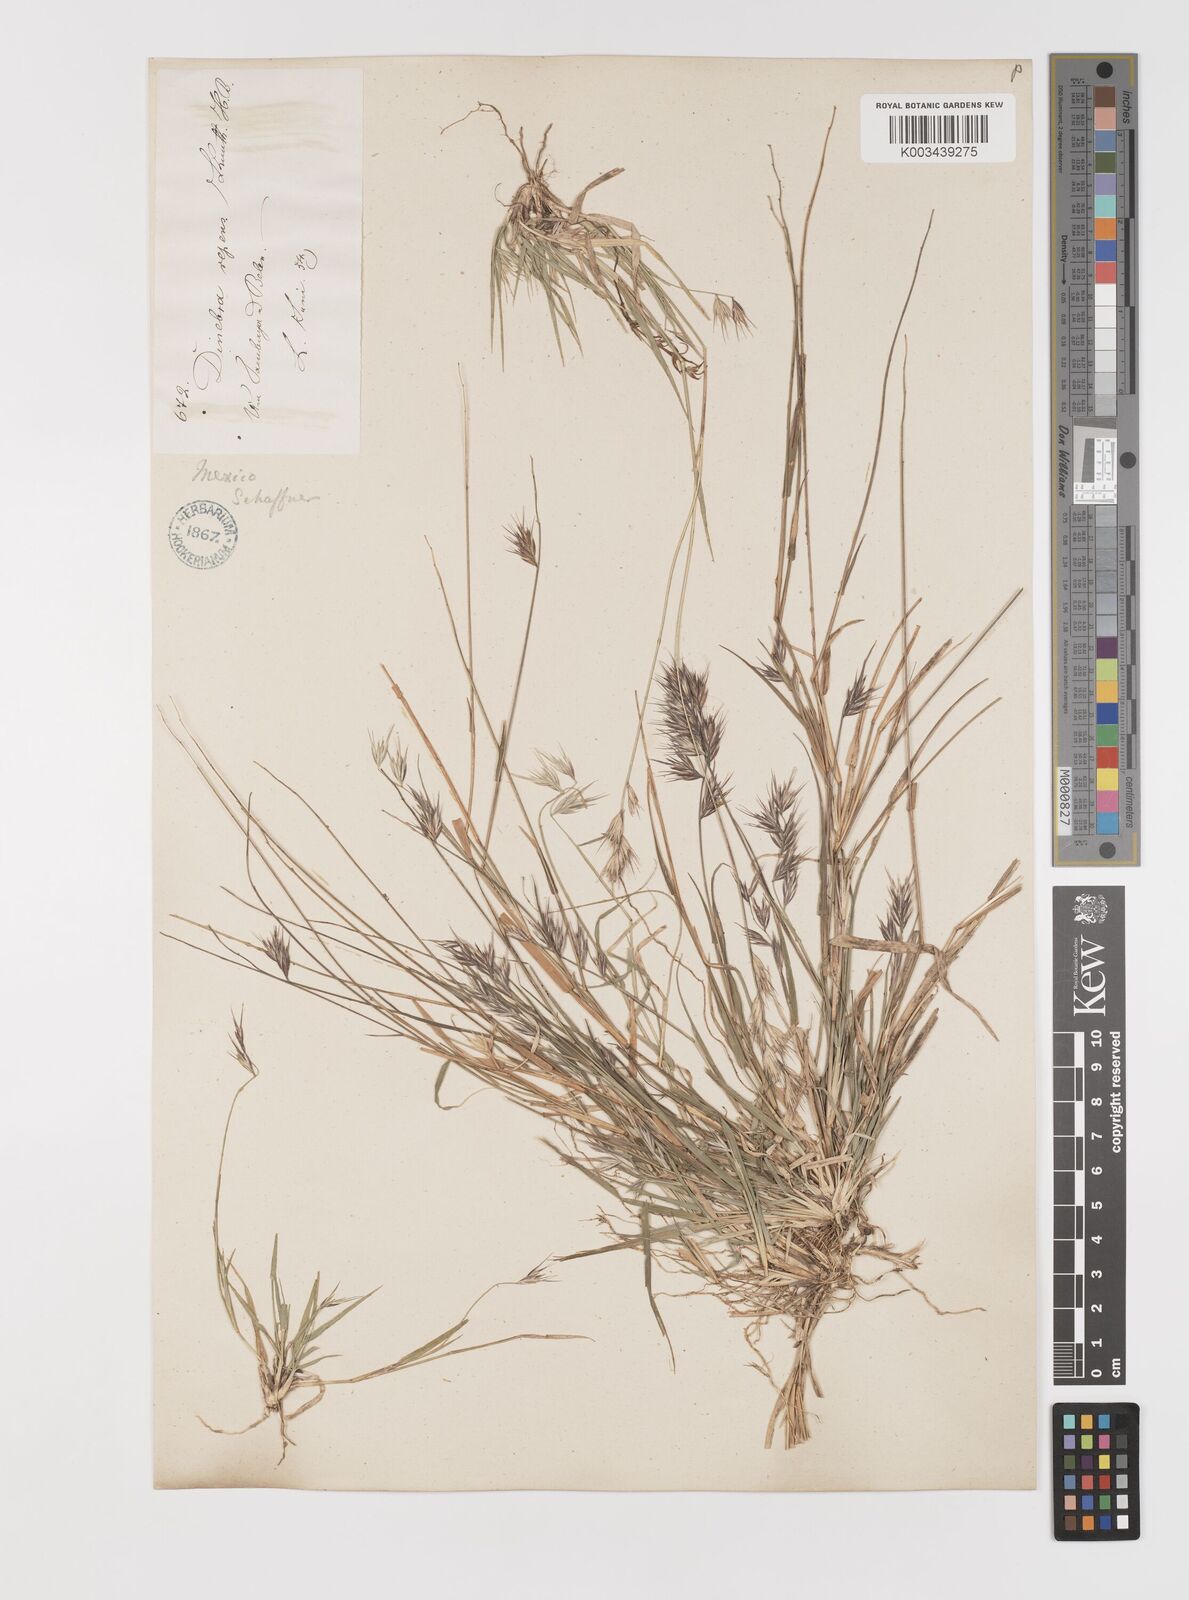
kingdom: Plantae
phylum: Tracheophyta
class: Liliopsida
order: Poales
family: Poaceae
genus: Bouteloua
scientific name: Bouteloua repens
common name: Slender grama
